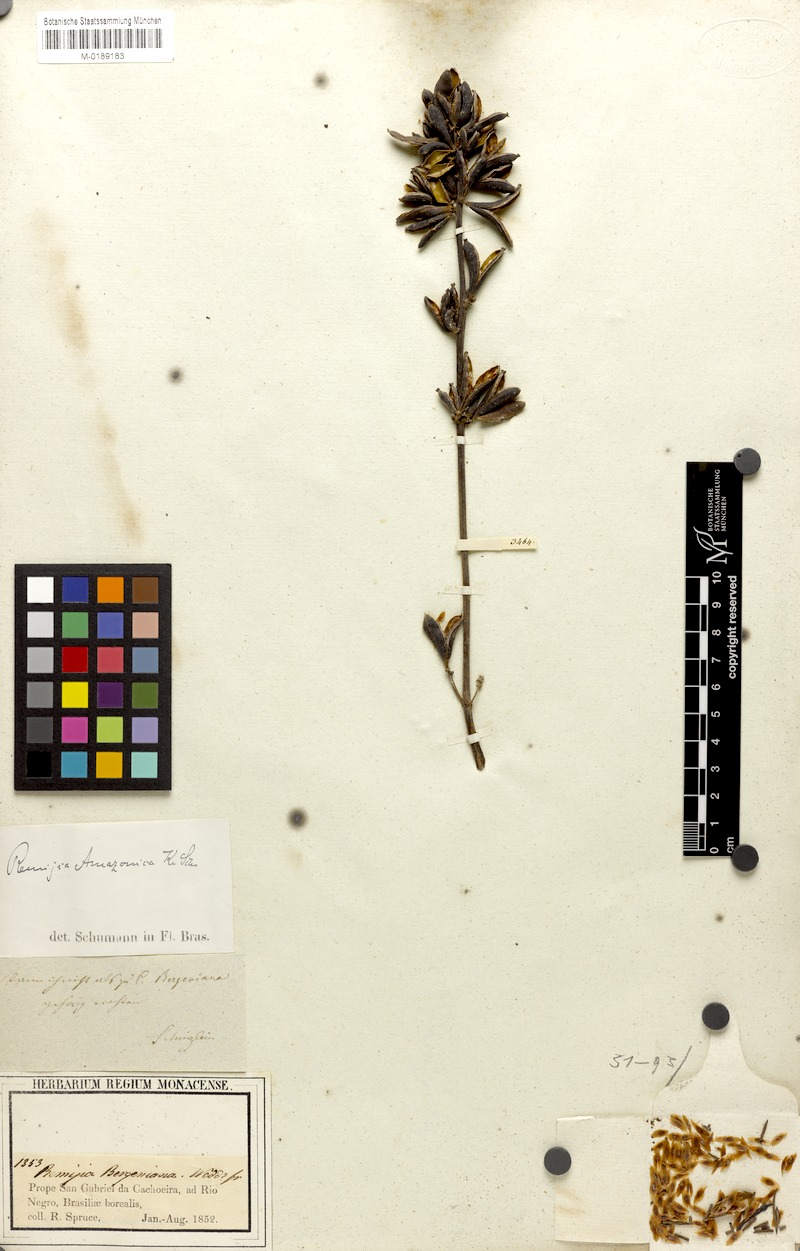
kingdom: Plantae
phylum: Tracheophyta
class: Magnoliopsida
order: Gentianales
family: Rubiaceae
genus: Remijia
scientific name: Remijia amazonica
